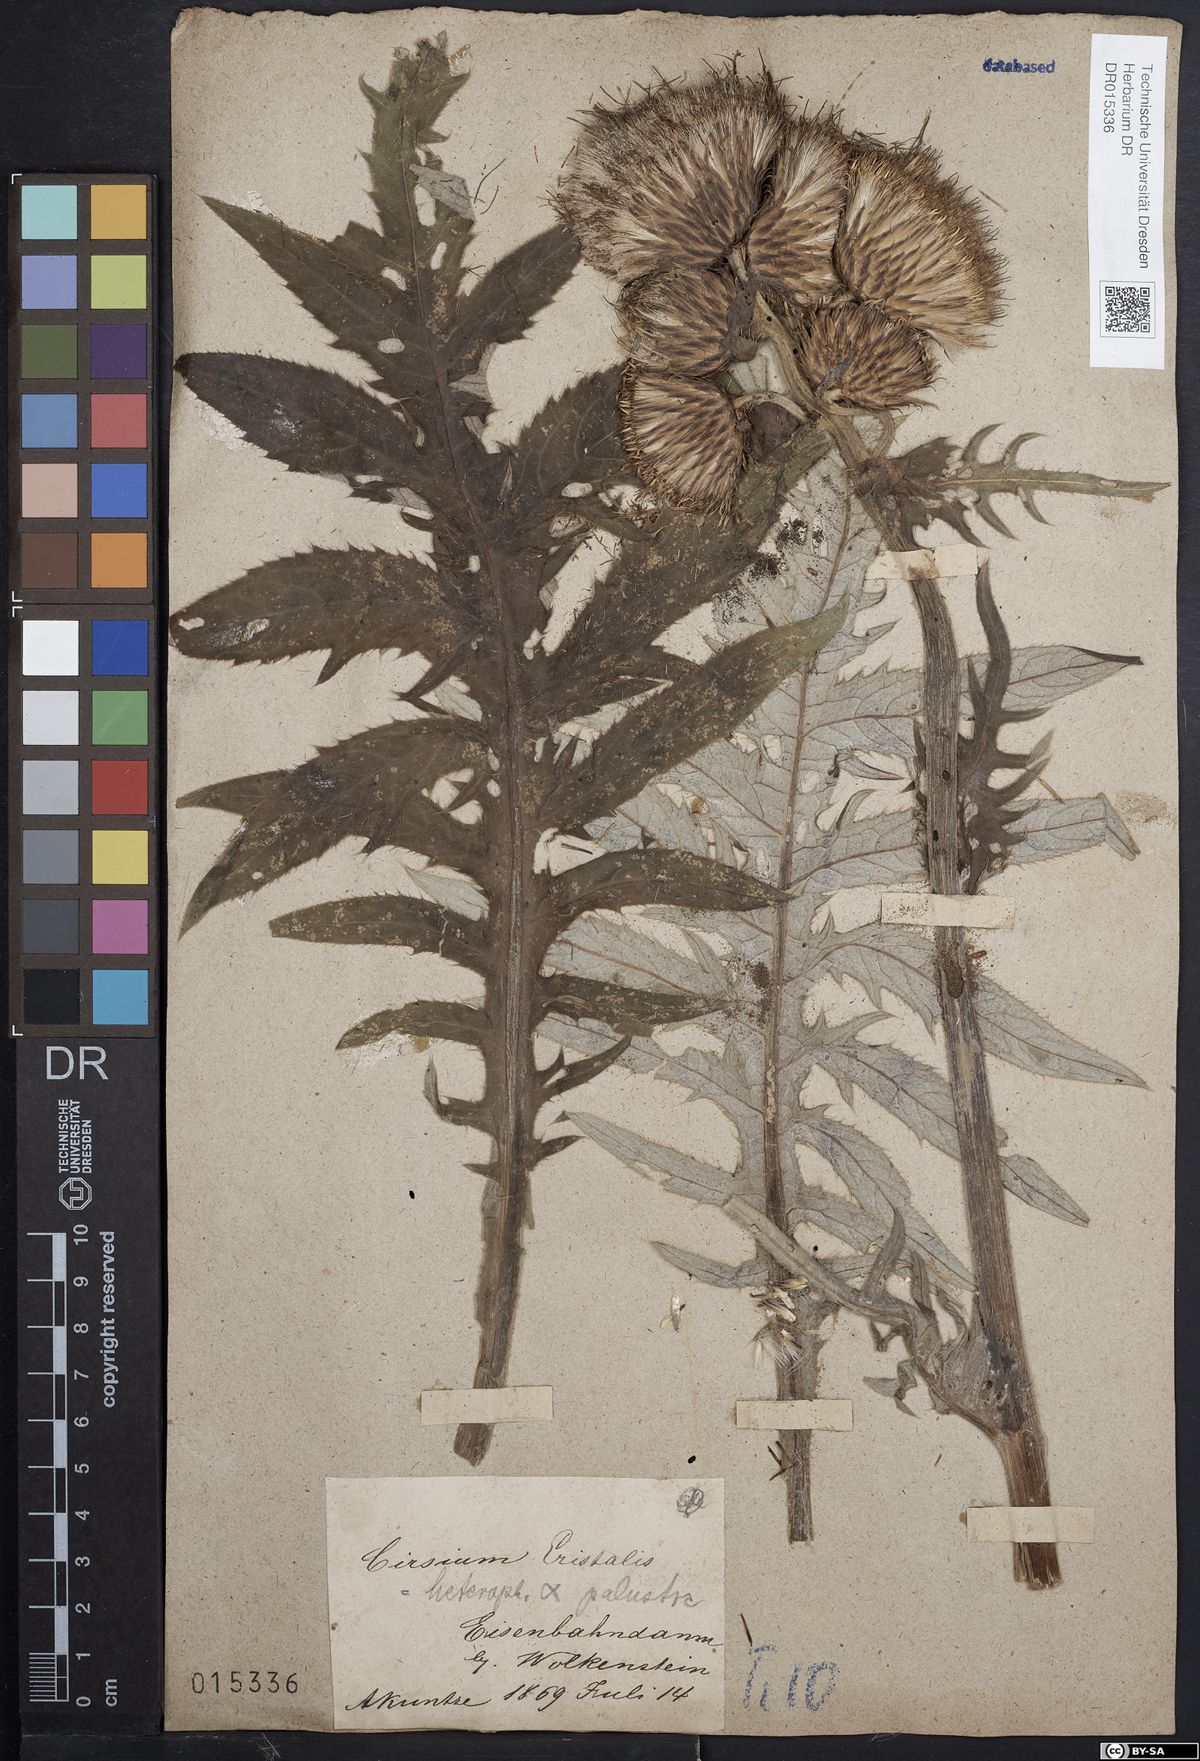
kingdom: Plantae
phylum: Tracheophyta
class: Magnoliopsida
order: Asterales
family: Asteraceae
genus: Cirsium
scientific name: Cirsium wankelii
